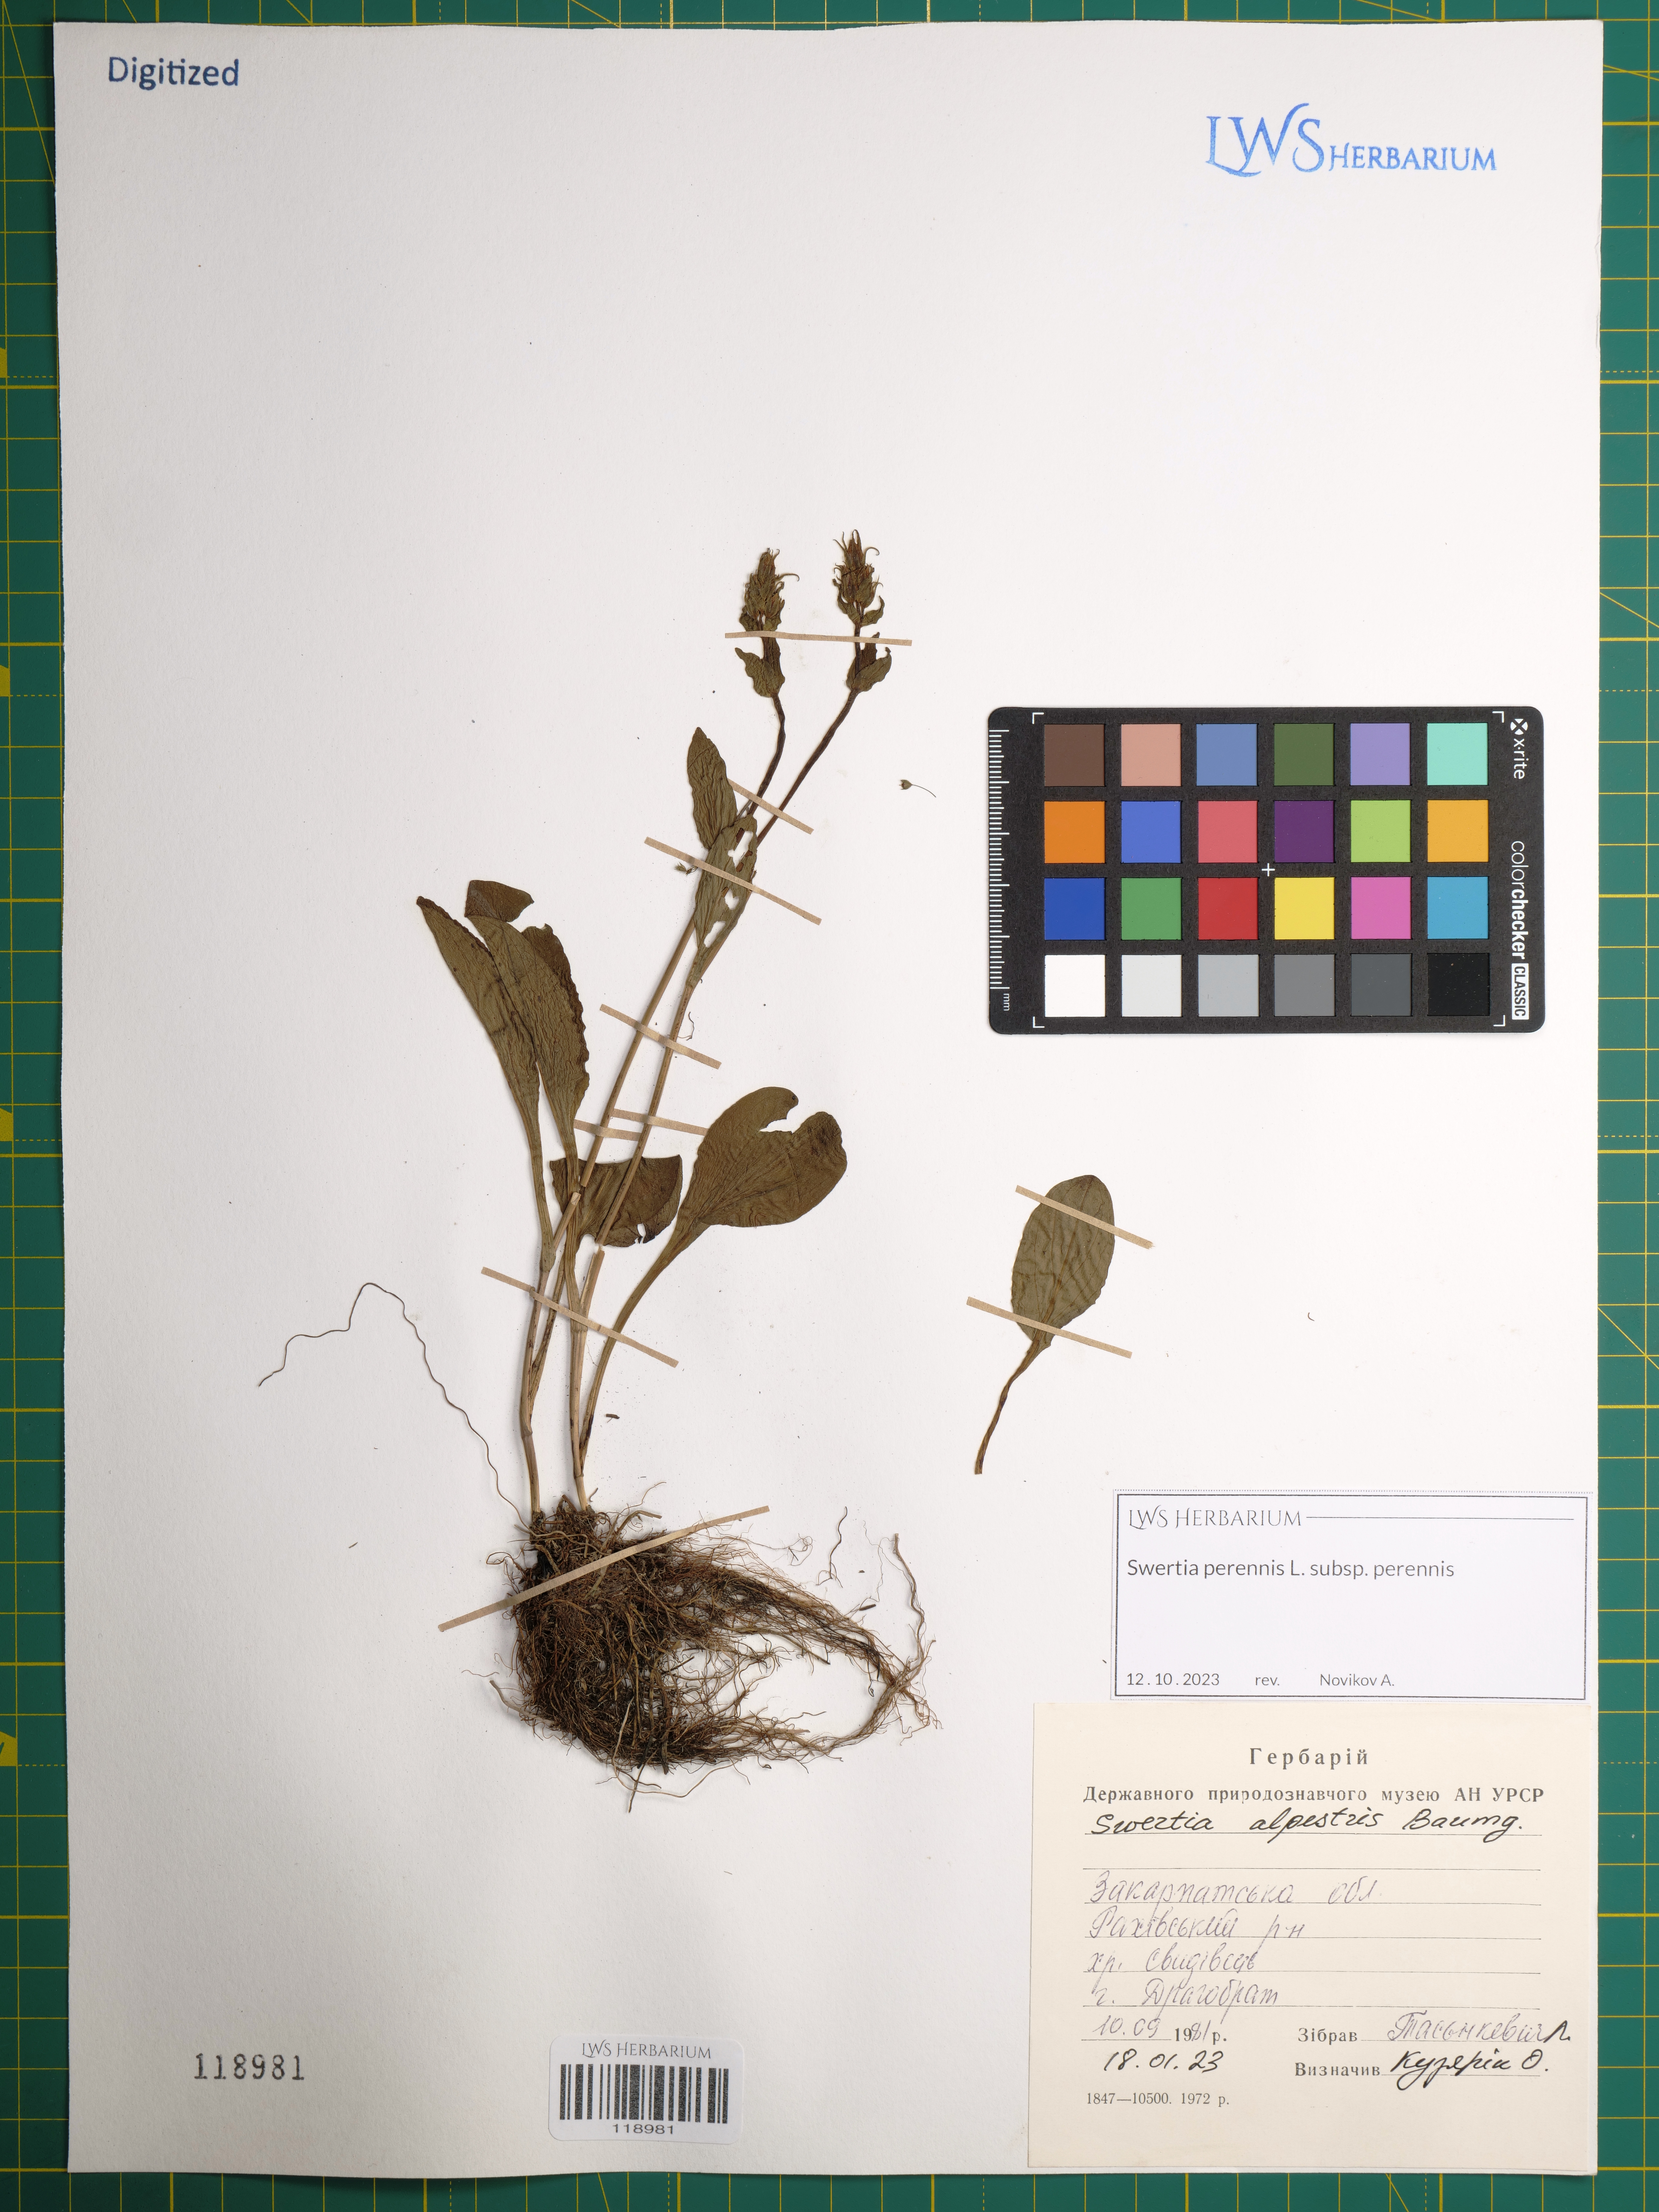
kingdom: Plantae
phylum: Tracheophyta
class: Magnoliopsida
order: Gentianales
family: Gentianaceae
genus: Swertia
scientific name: Swertia perennis
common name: Alpine bog swertia
